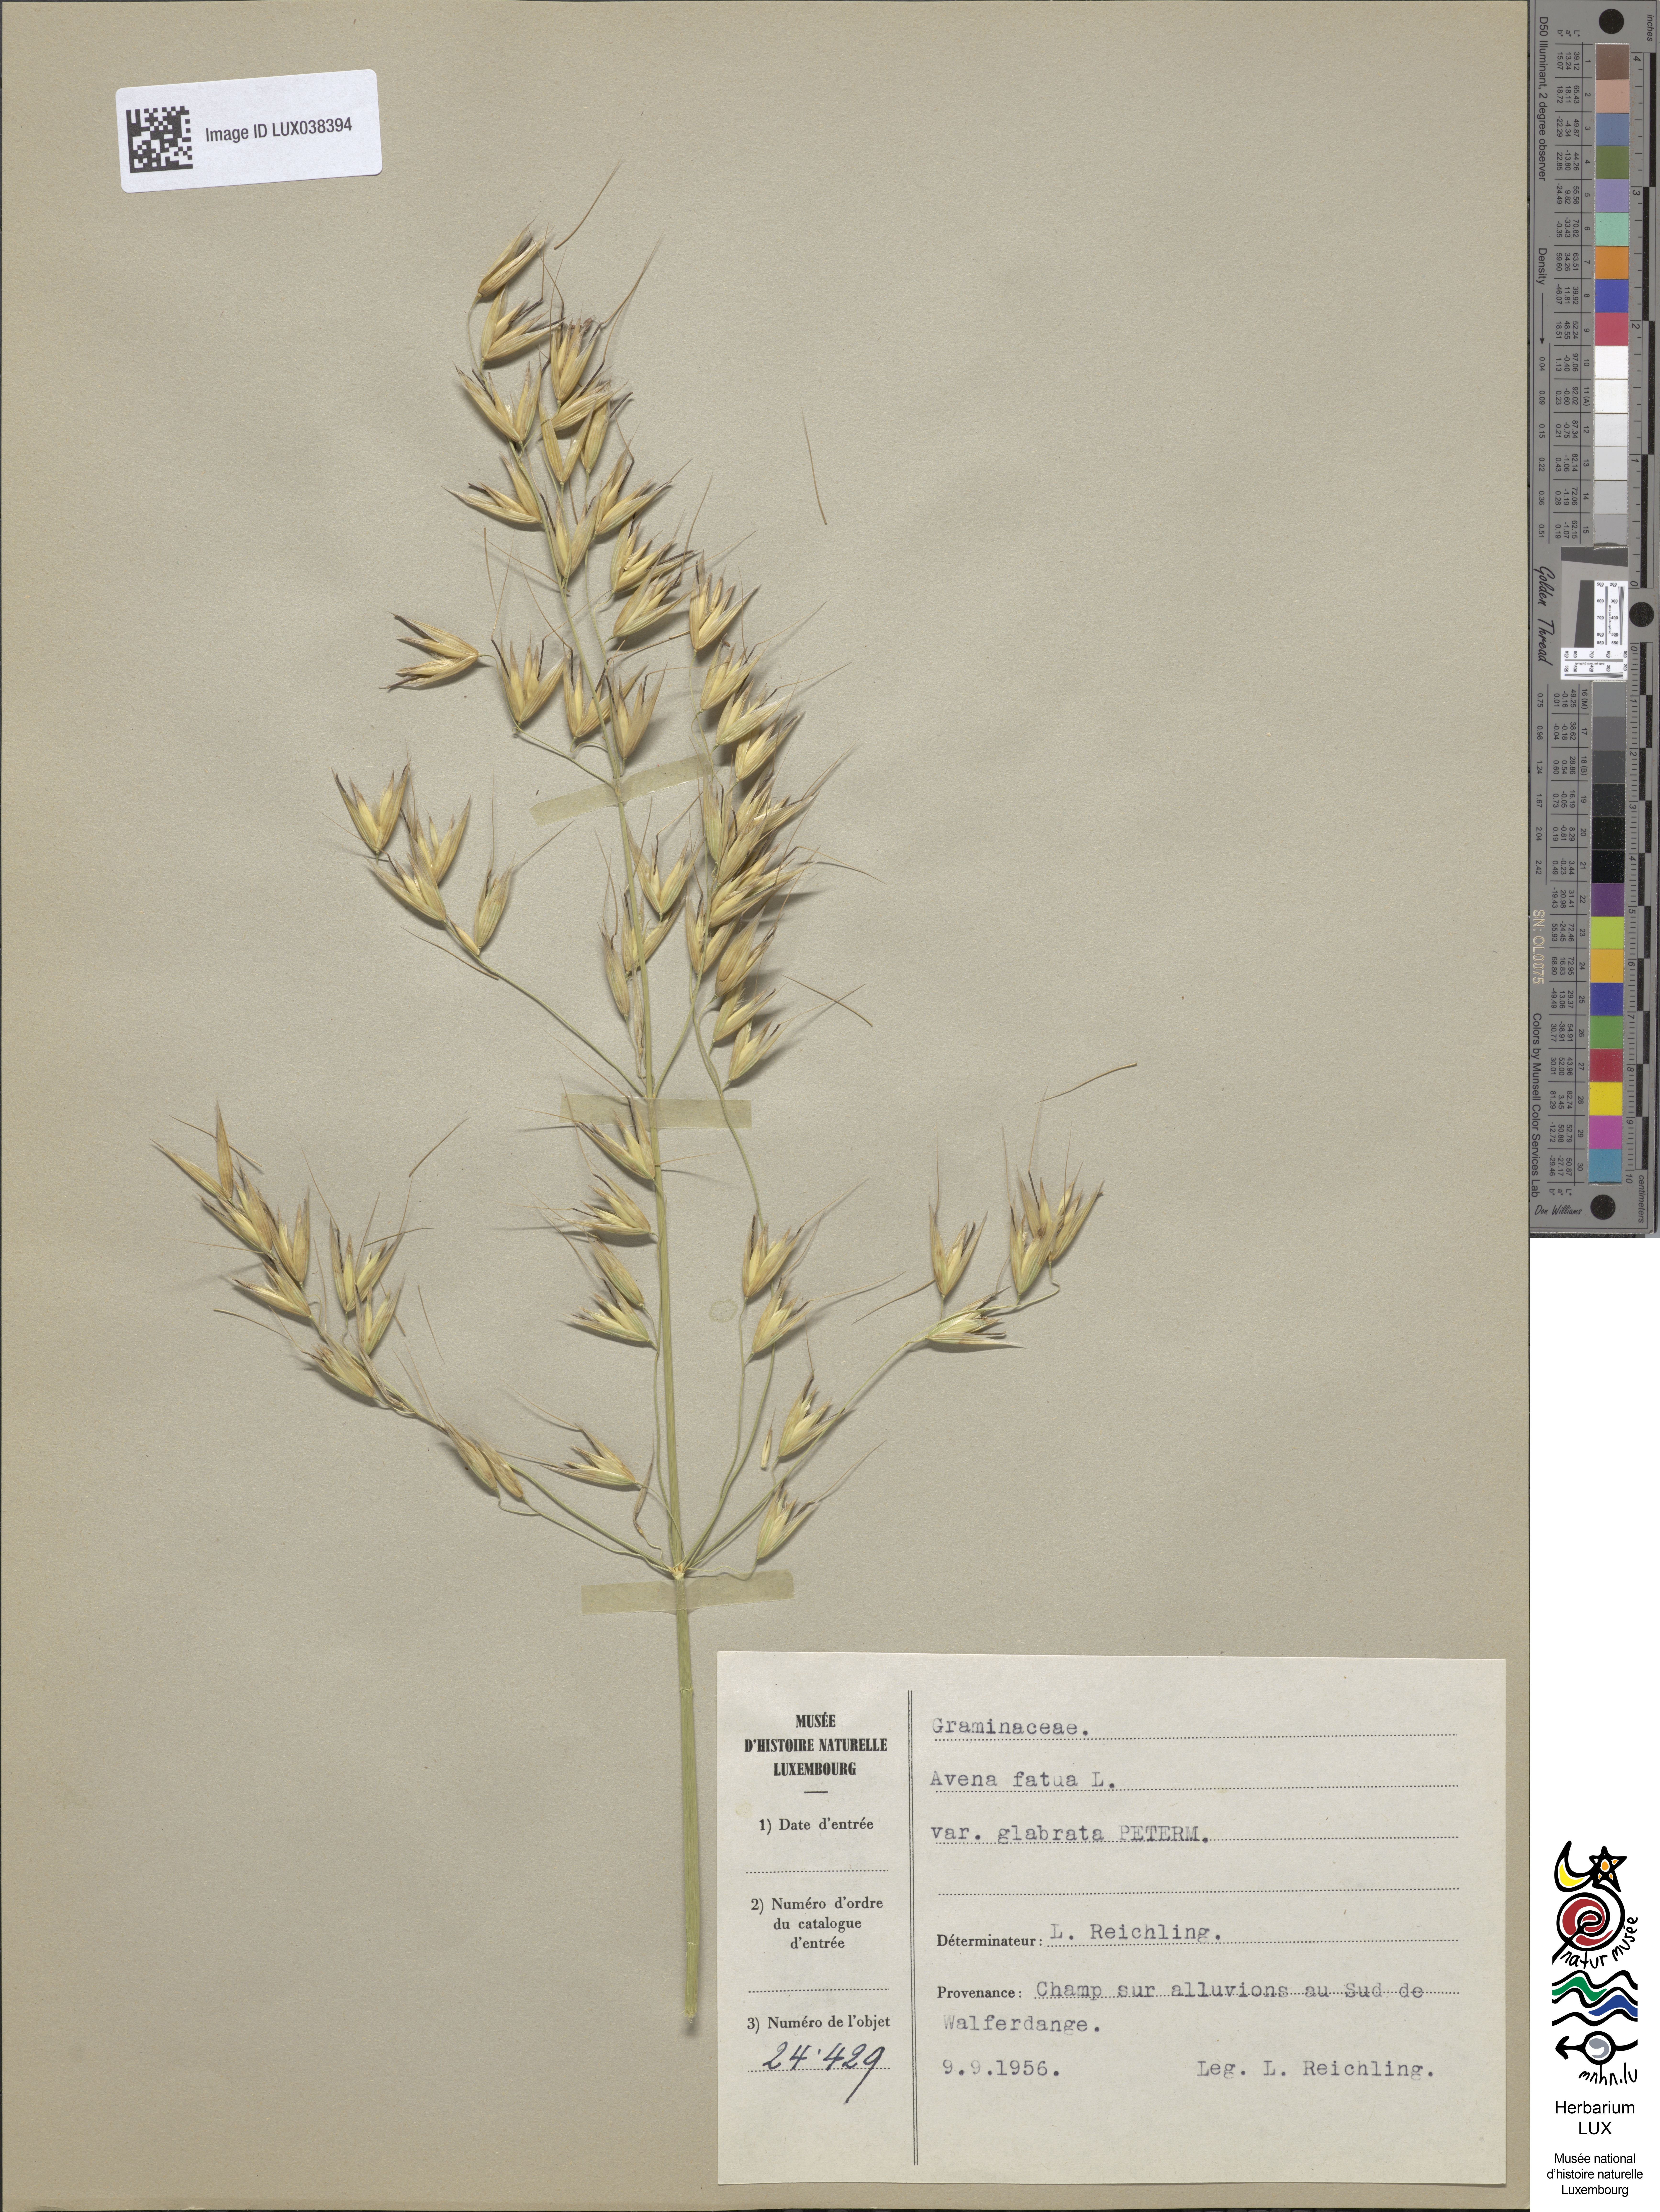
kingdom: Plantae
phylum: Tracheophyta
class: Liliopsida
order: Poales
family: Poaceae
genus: Avena
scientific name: Avena fatua
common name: Wild oat
